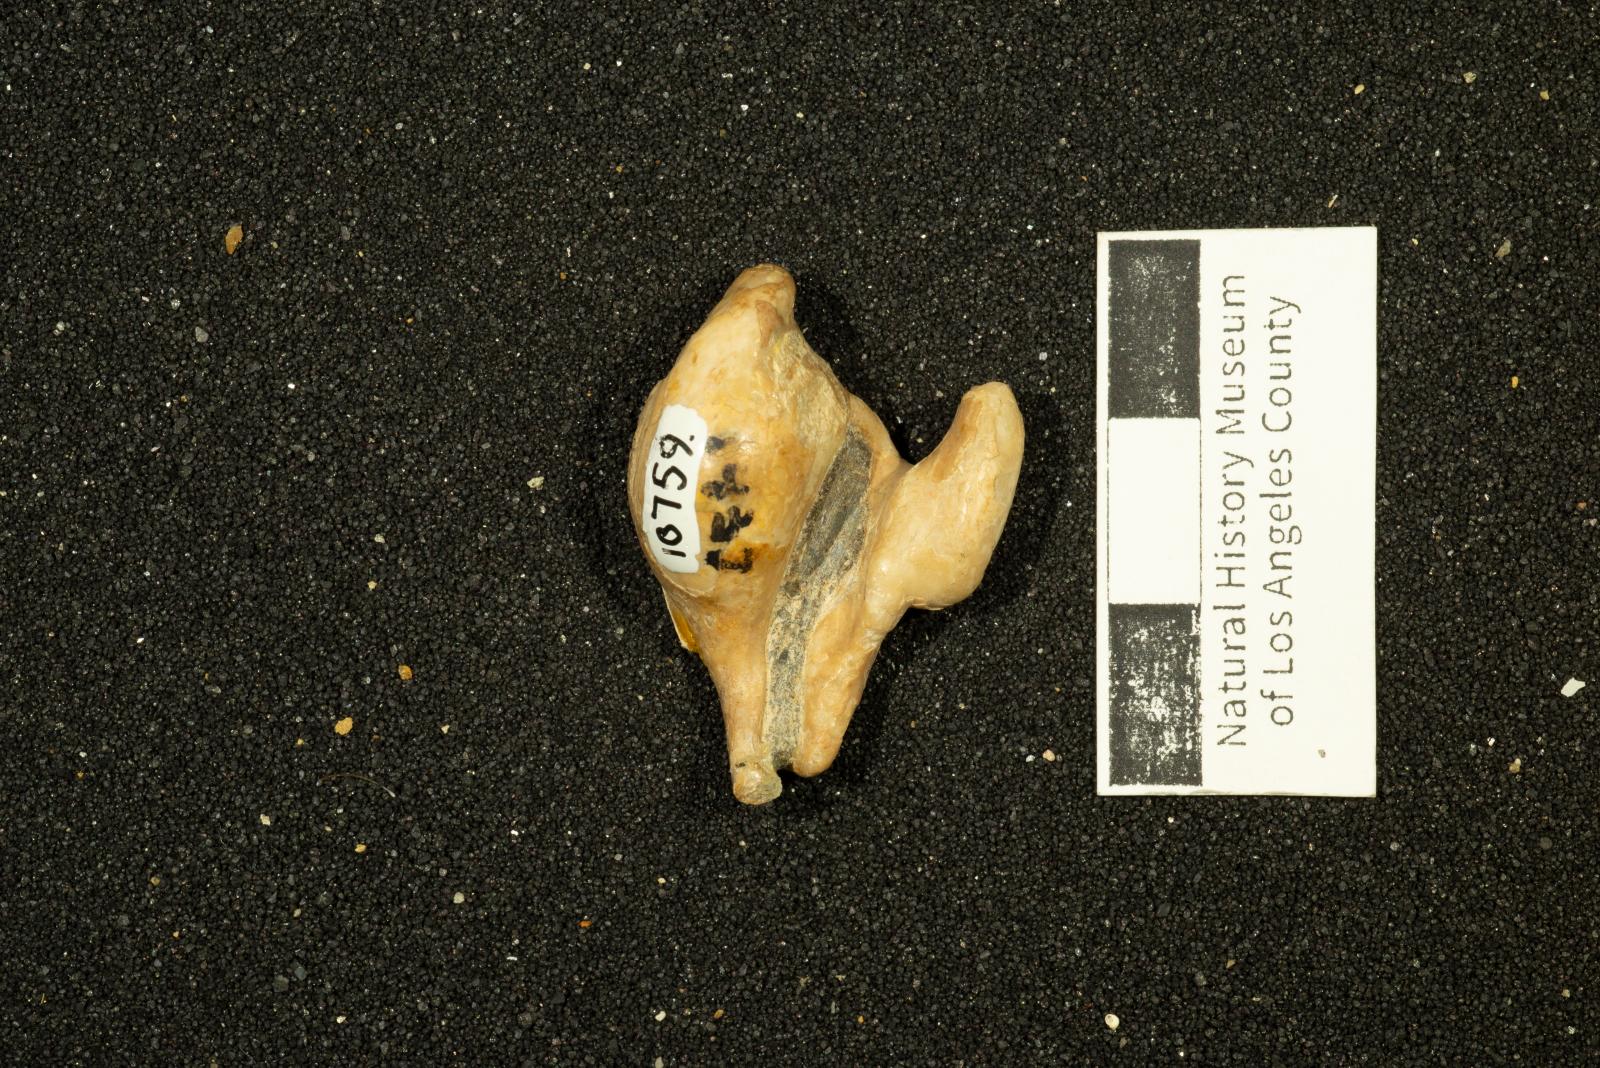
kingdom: Animalia
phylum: Mollusca
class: Gastropoda
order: Littorinimorpha
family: Aporrhaidae
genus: Gymnarus
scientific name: Gymnarus Pugnellus manubriatus
